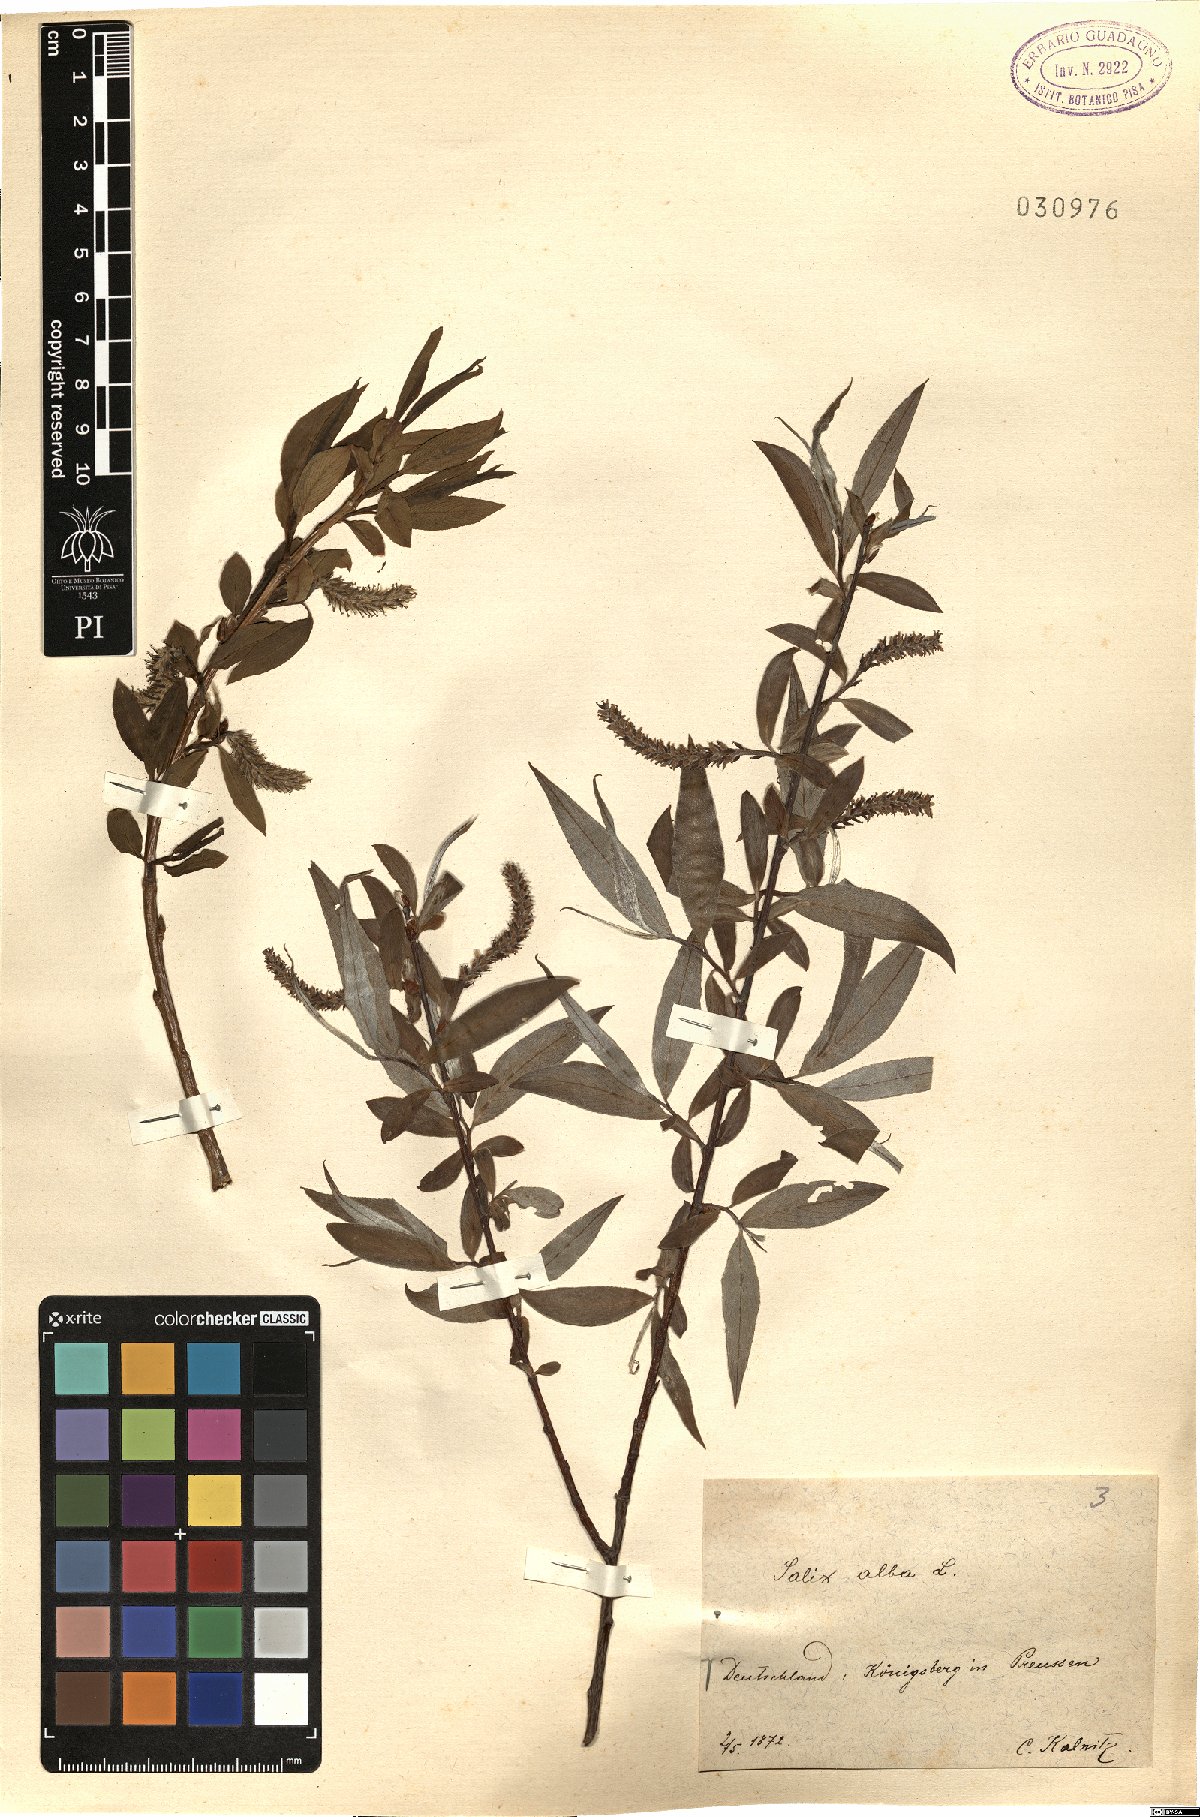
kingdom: Plantae
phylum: Tracheophyta
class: Magnoliopsida
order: Malpighiales
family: Salicaceae
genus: Salix
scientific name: Salix alba
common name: White willow
